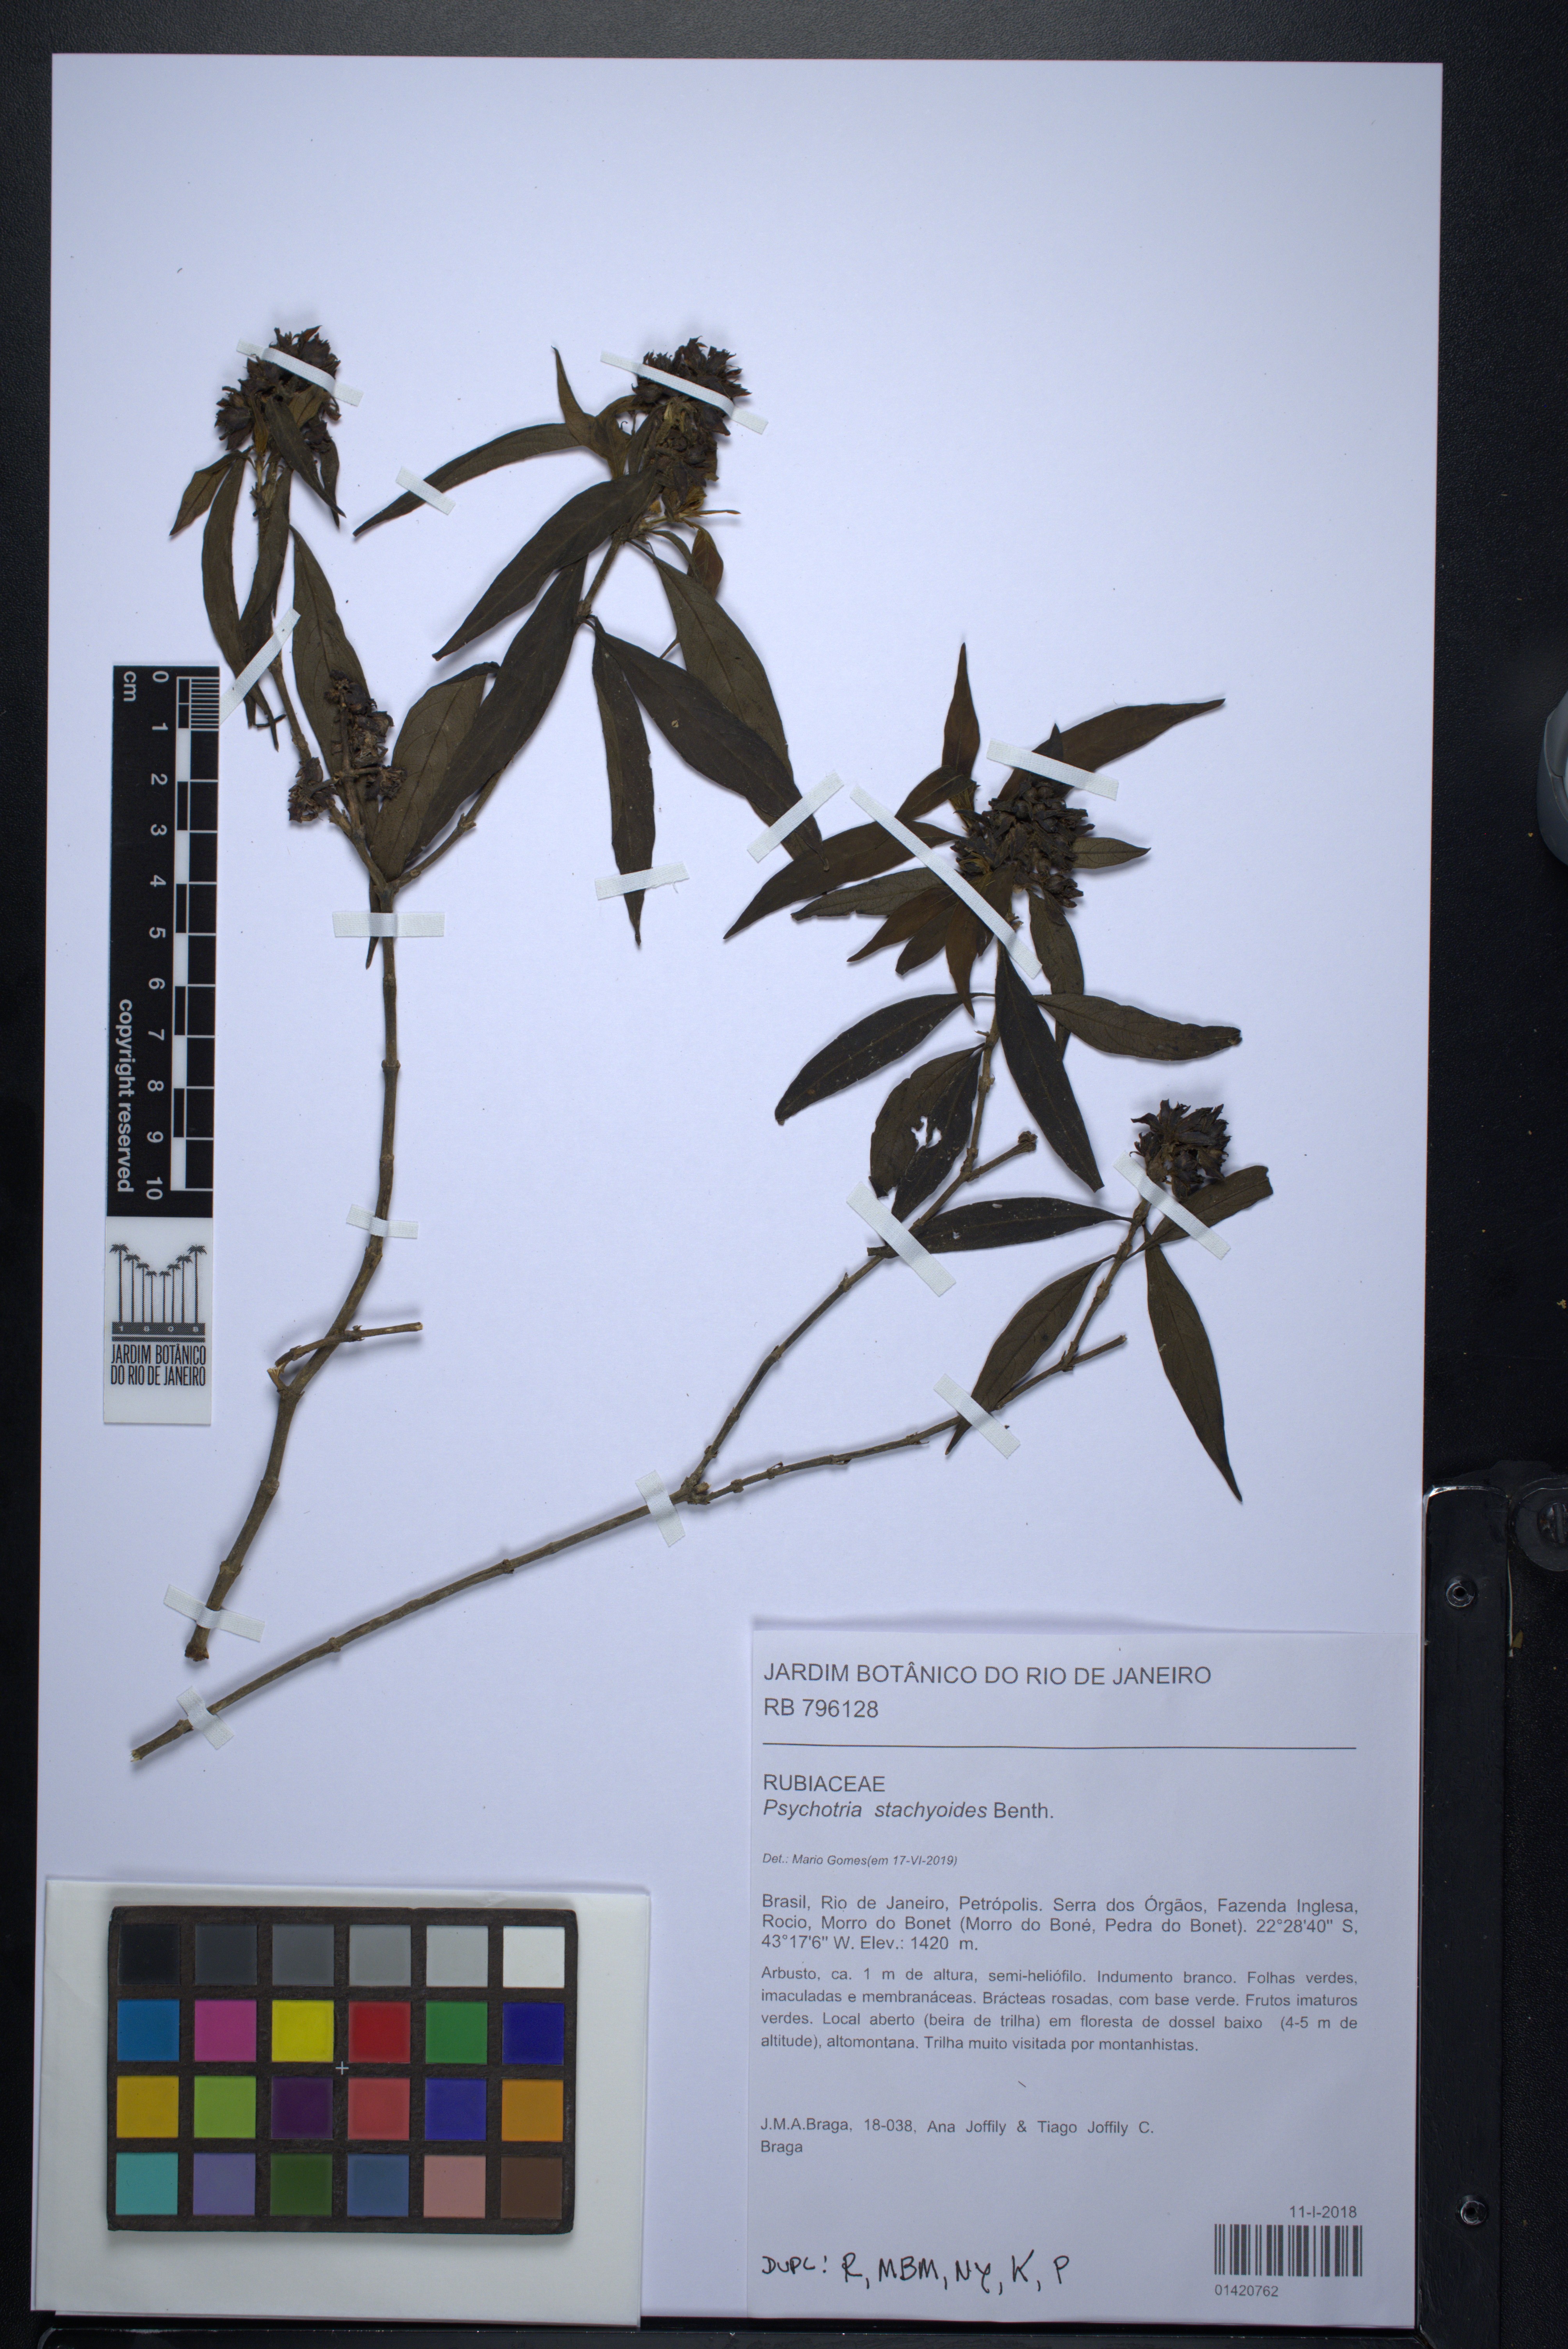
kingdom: Plantae
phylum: Tracheophyta
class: Magnoliopsida
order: Gentianales
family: Rubiaceae
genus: Psychotria
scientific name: Psychotria stachyoides
